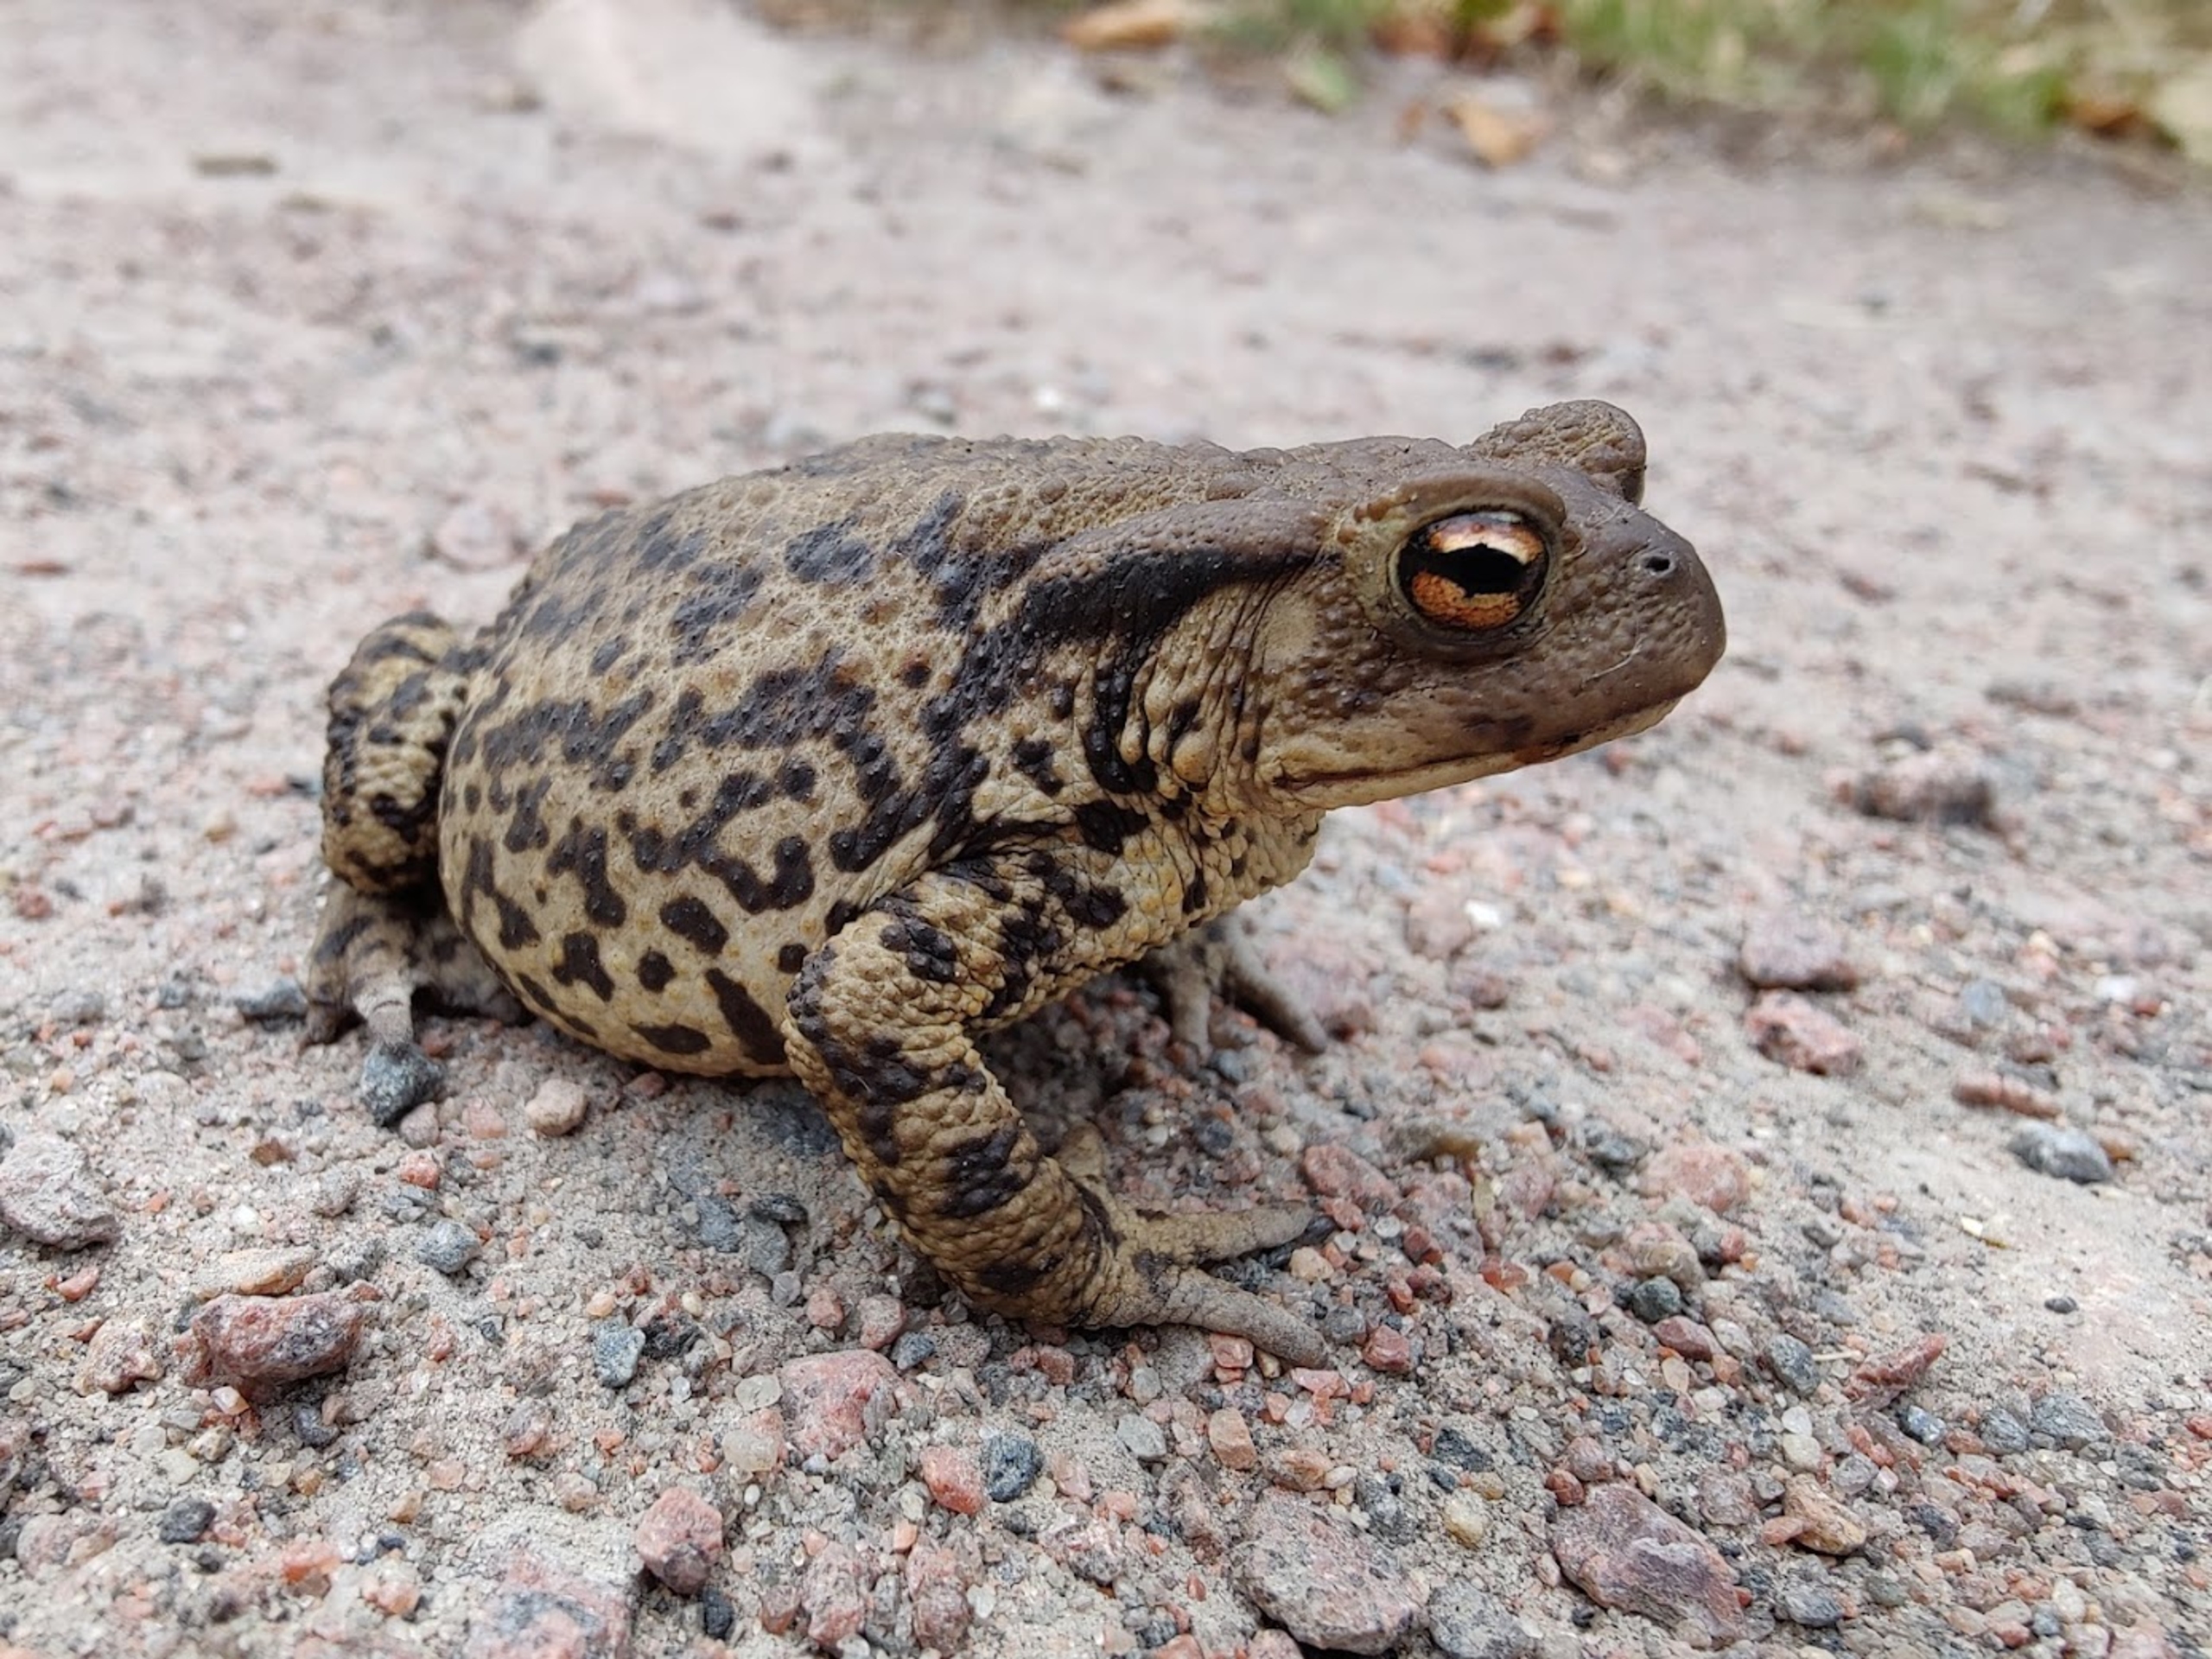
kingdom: Animalia
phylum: Chordata
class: Amphibia
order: Anura
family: Bufonidae
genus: Bufo
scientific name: Bufo bufo
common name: Skrubtudse
